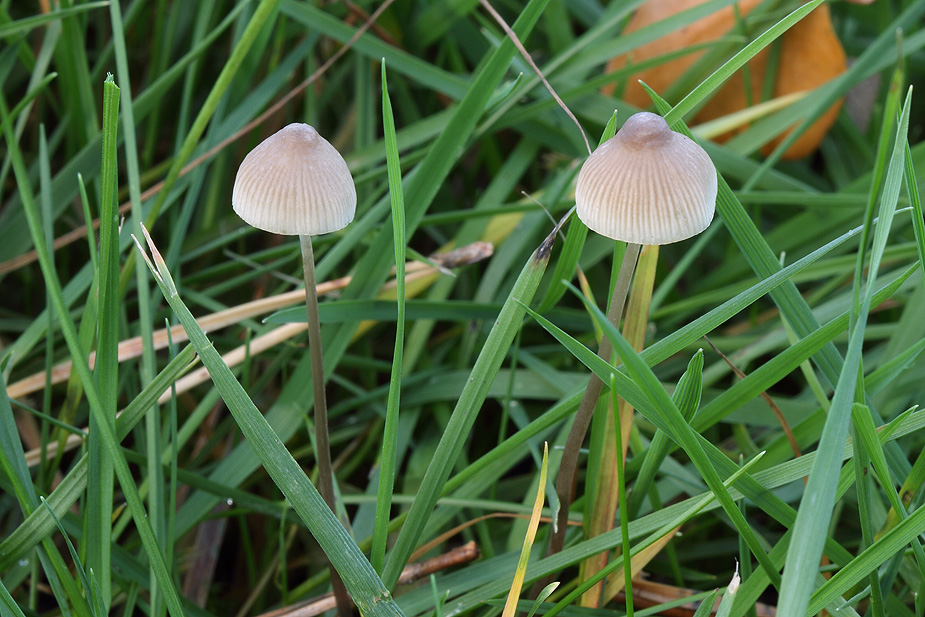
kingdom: Fungi
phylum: Basidiomycota
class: Agaricomycetes
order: Agaricales
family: Mycenaceae
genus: Mycena
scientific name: Mycena filopes
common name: jod-huesvamp
